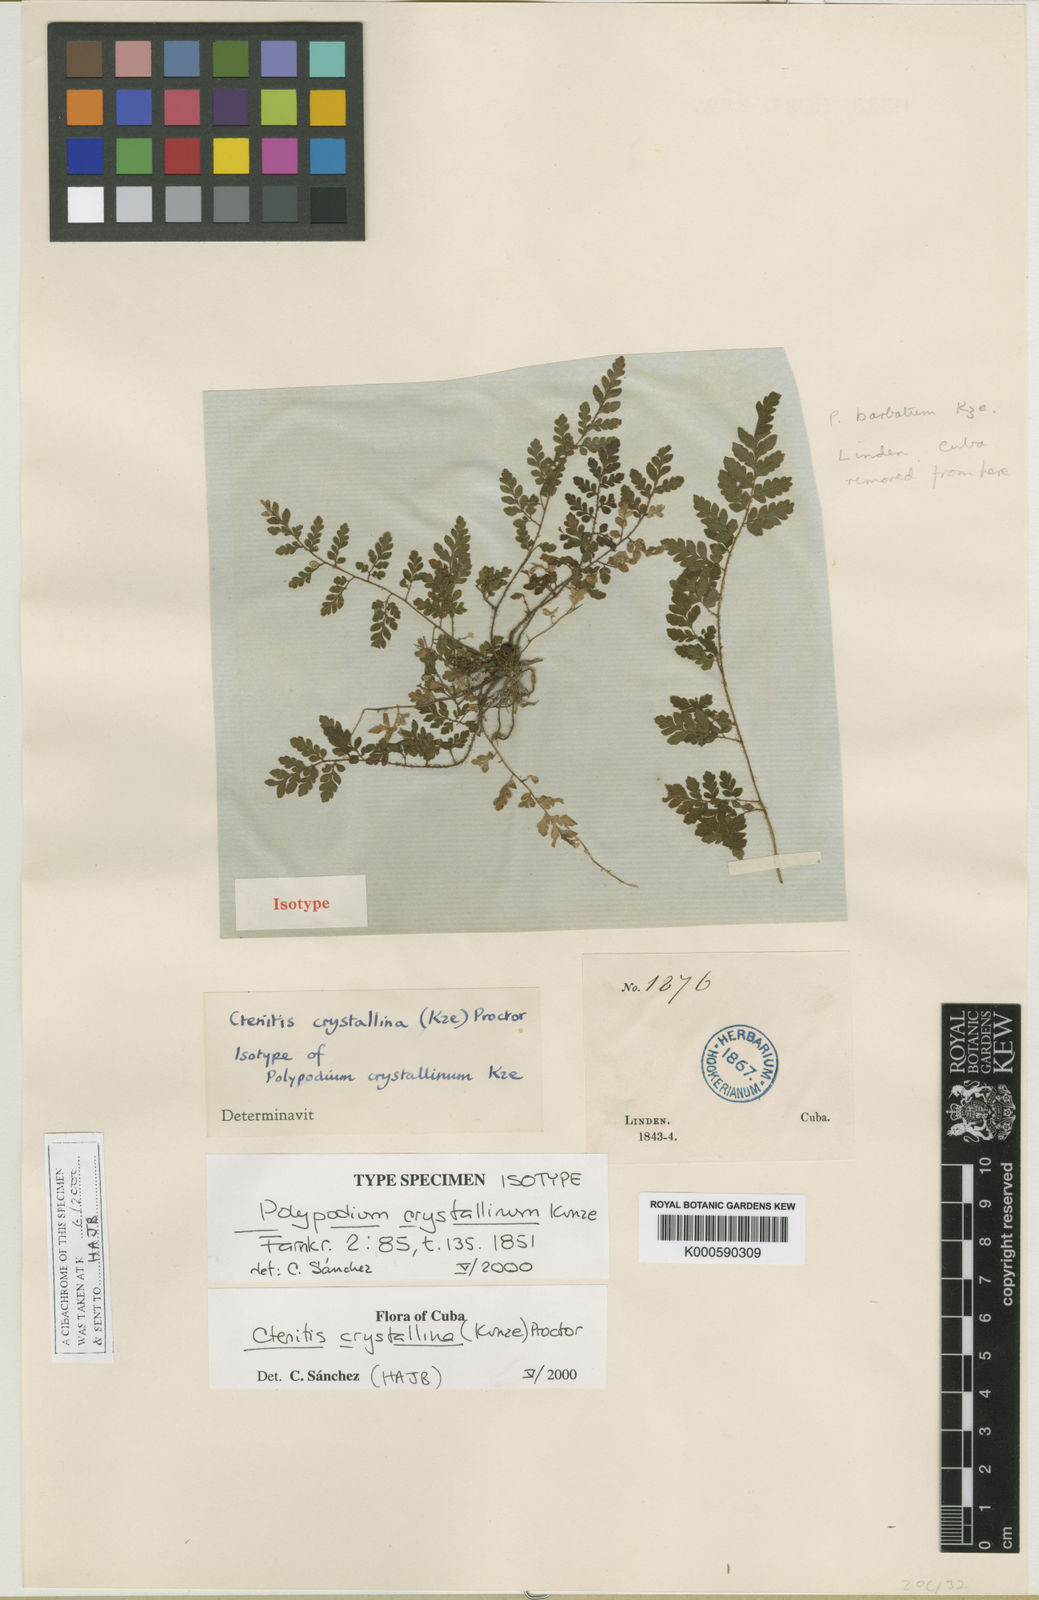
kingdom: Plantae
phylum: Tracheophyta
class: Polypodiopsida
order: Polypodiales
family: Dryopteridaceae
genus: Ctenitis
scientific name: Ctenitis crystallina
